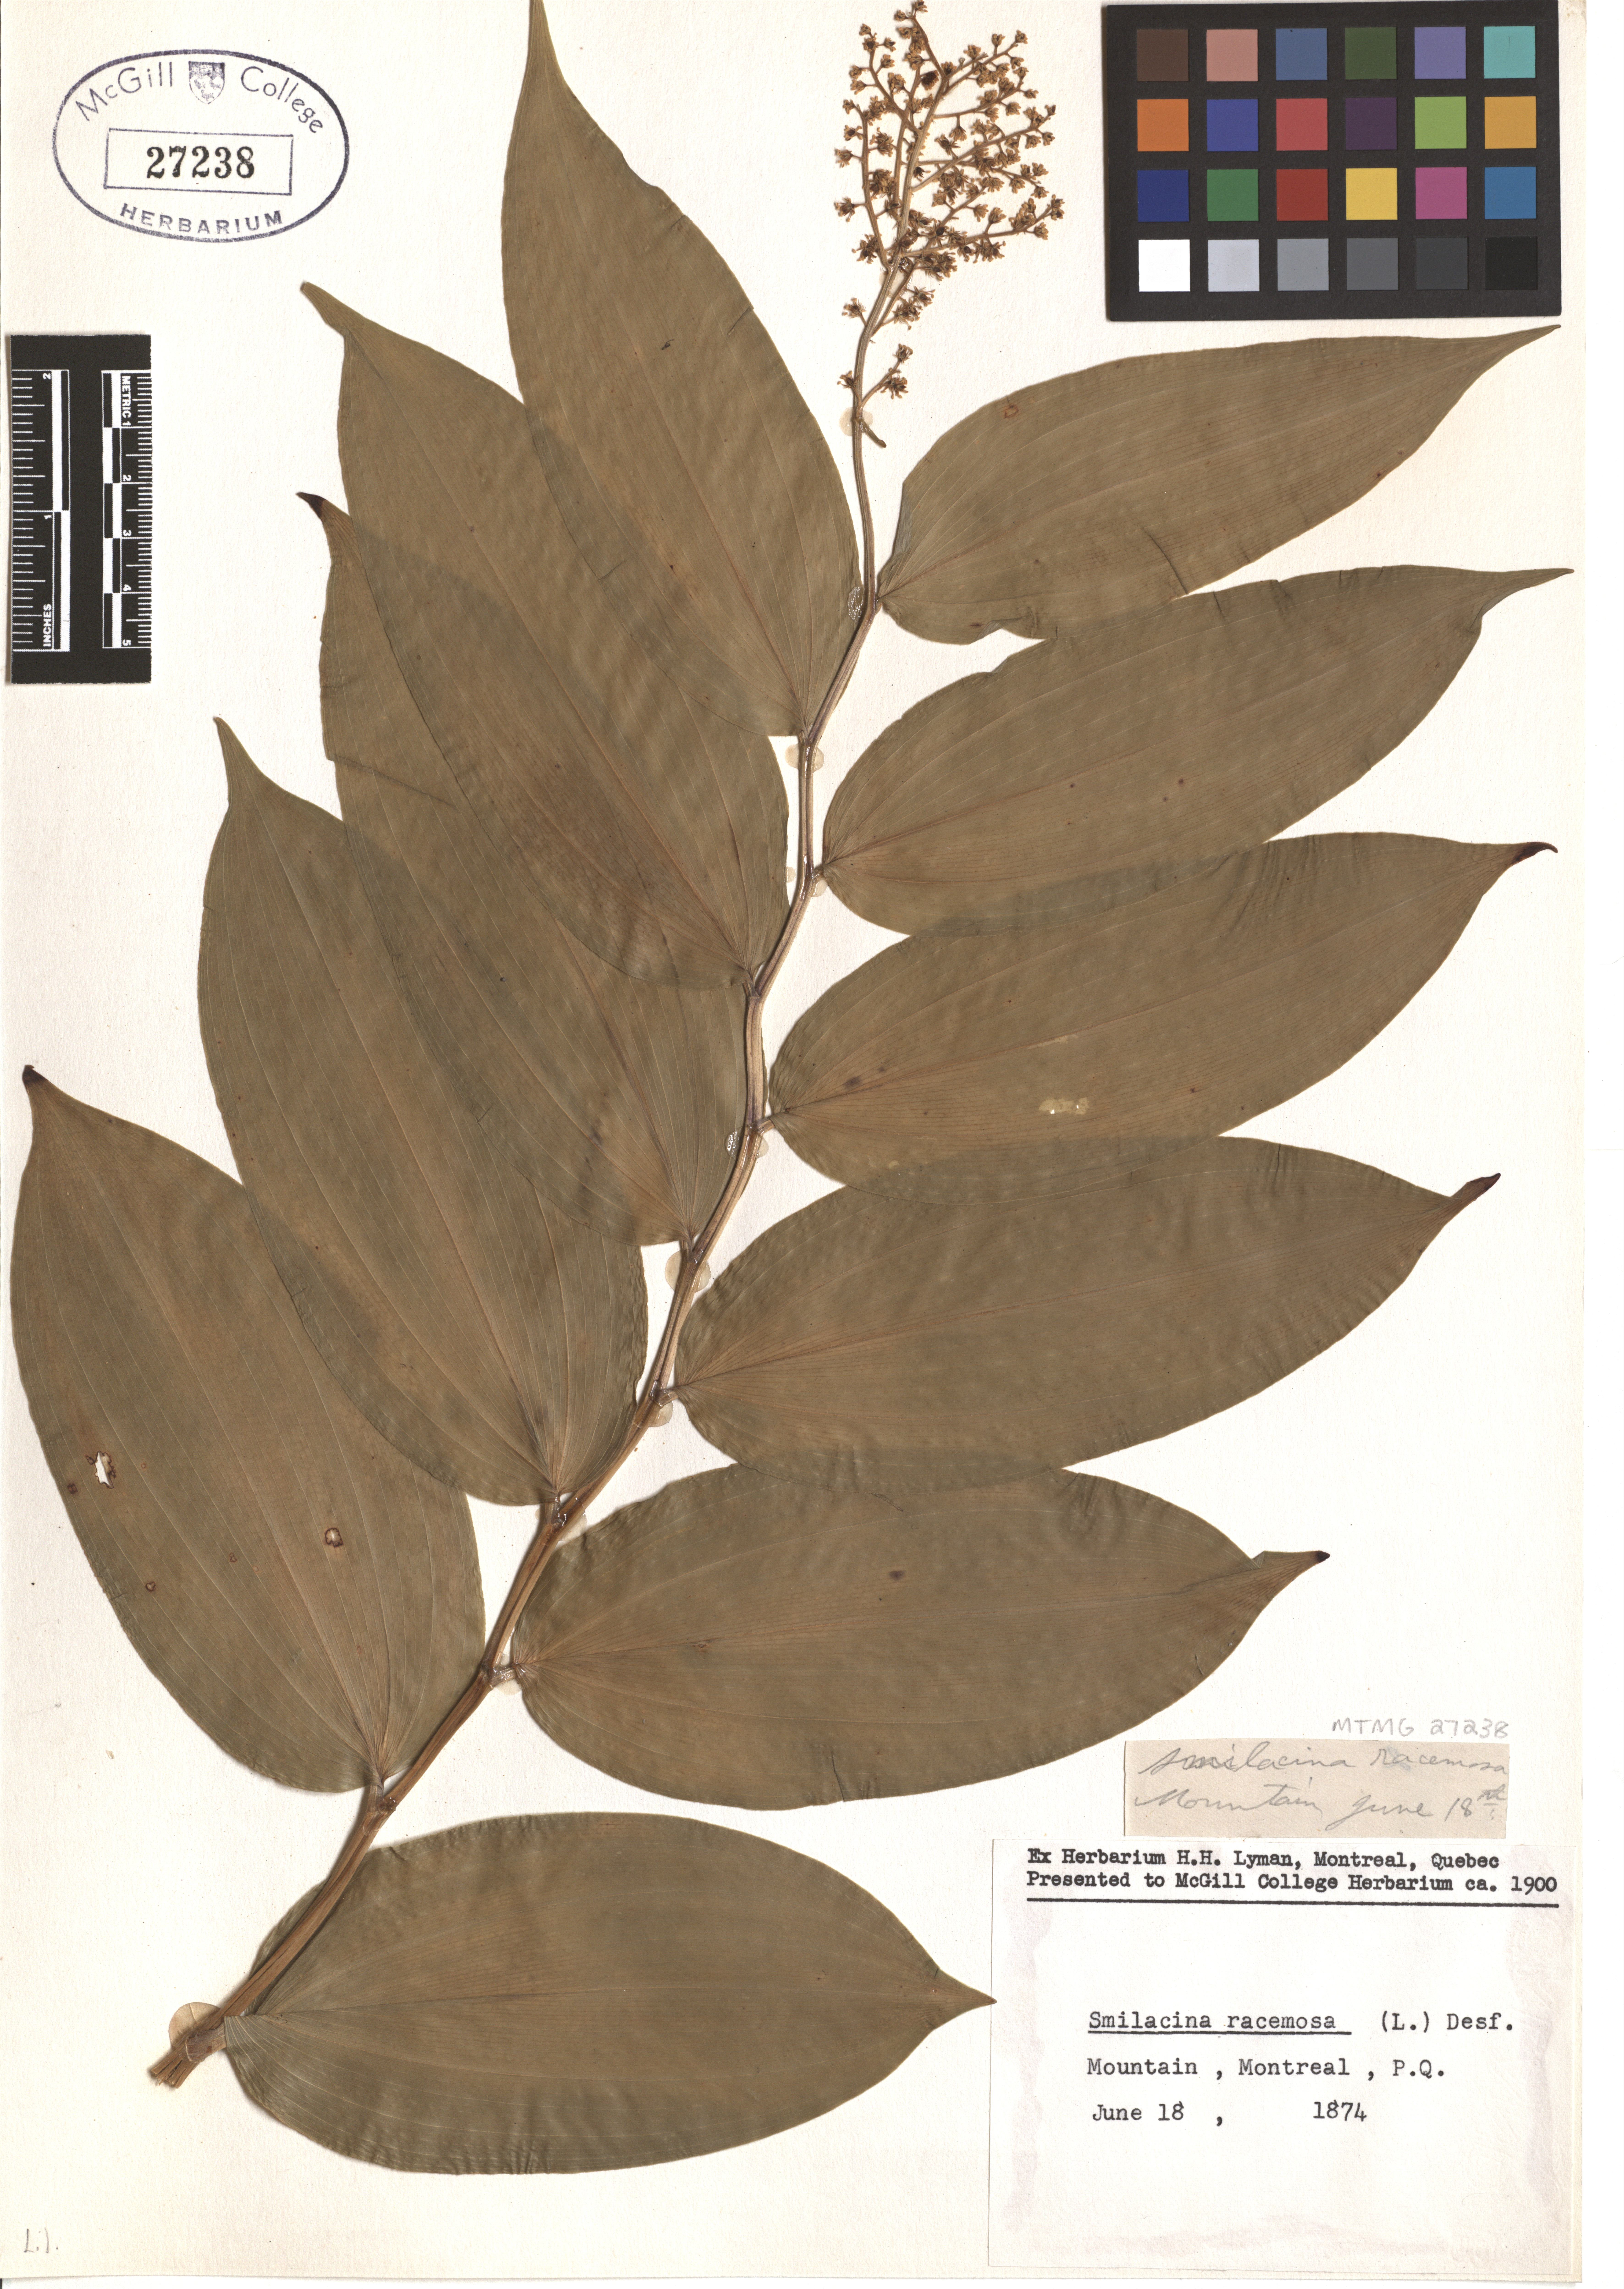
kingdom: Plantae
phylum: Tracheophyta
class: Liliopsida
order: Asparagales
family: Asparagaceae
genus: Maianthemum
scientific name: Maianthemum racemosum
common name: False spikenard
